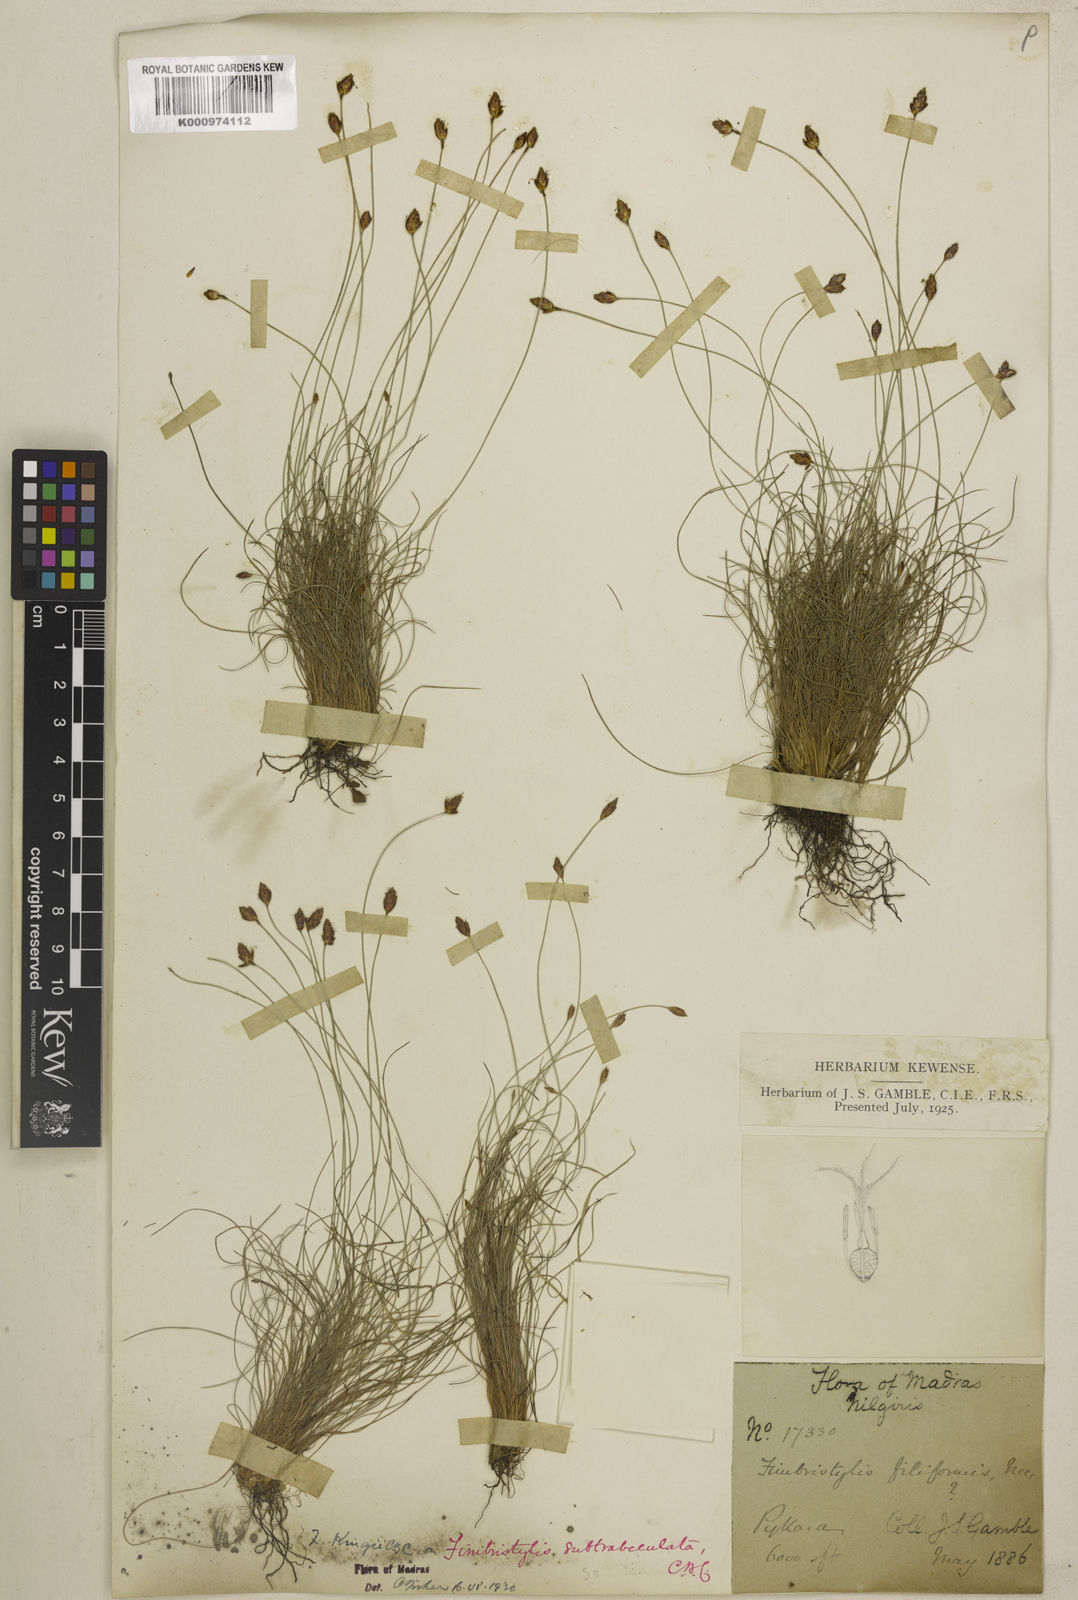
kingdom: Plantae
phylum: Tracheophyta
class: Liliopsida
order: Poales
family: Cyperaceae
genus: Fimbristylis
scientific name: Fimbristylis subtrabeculata
